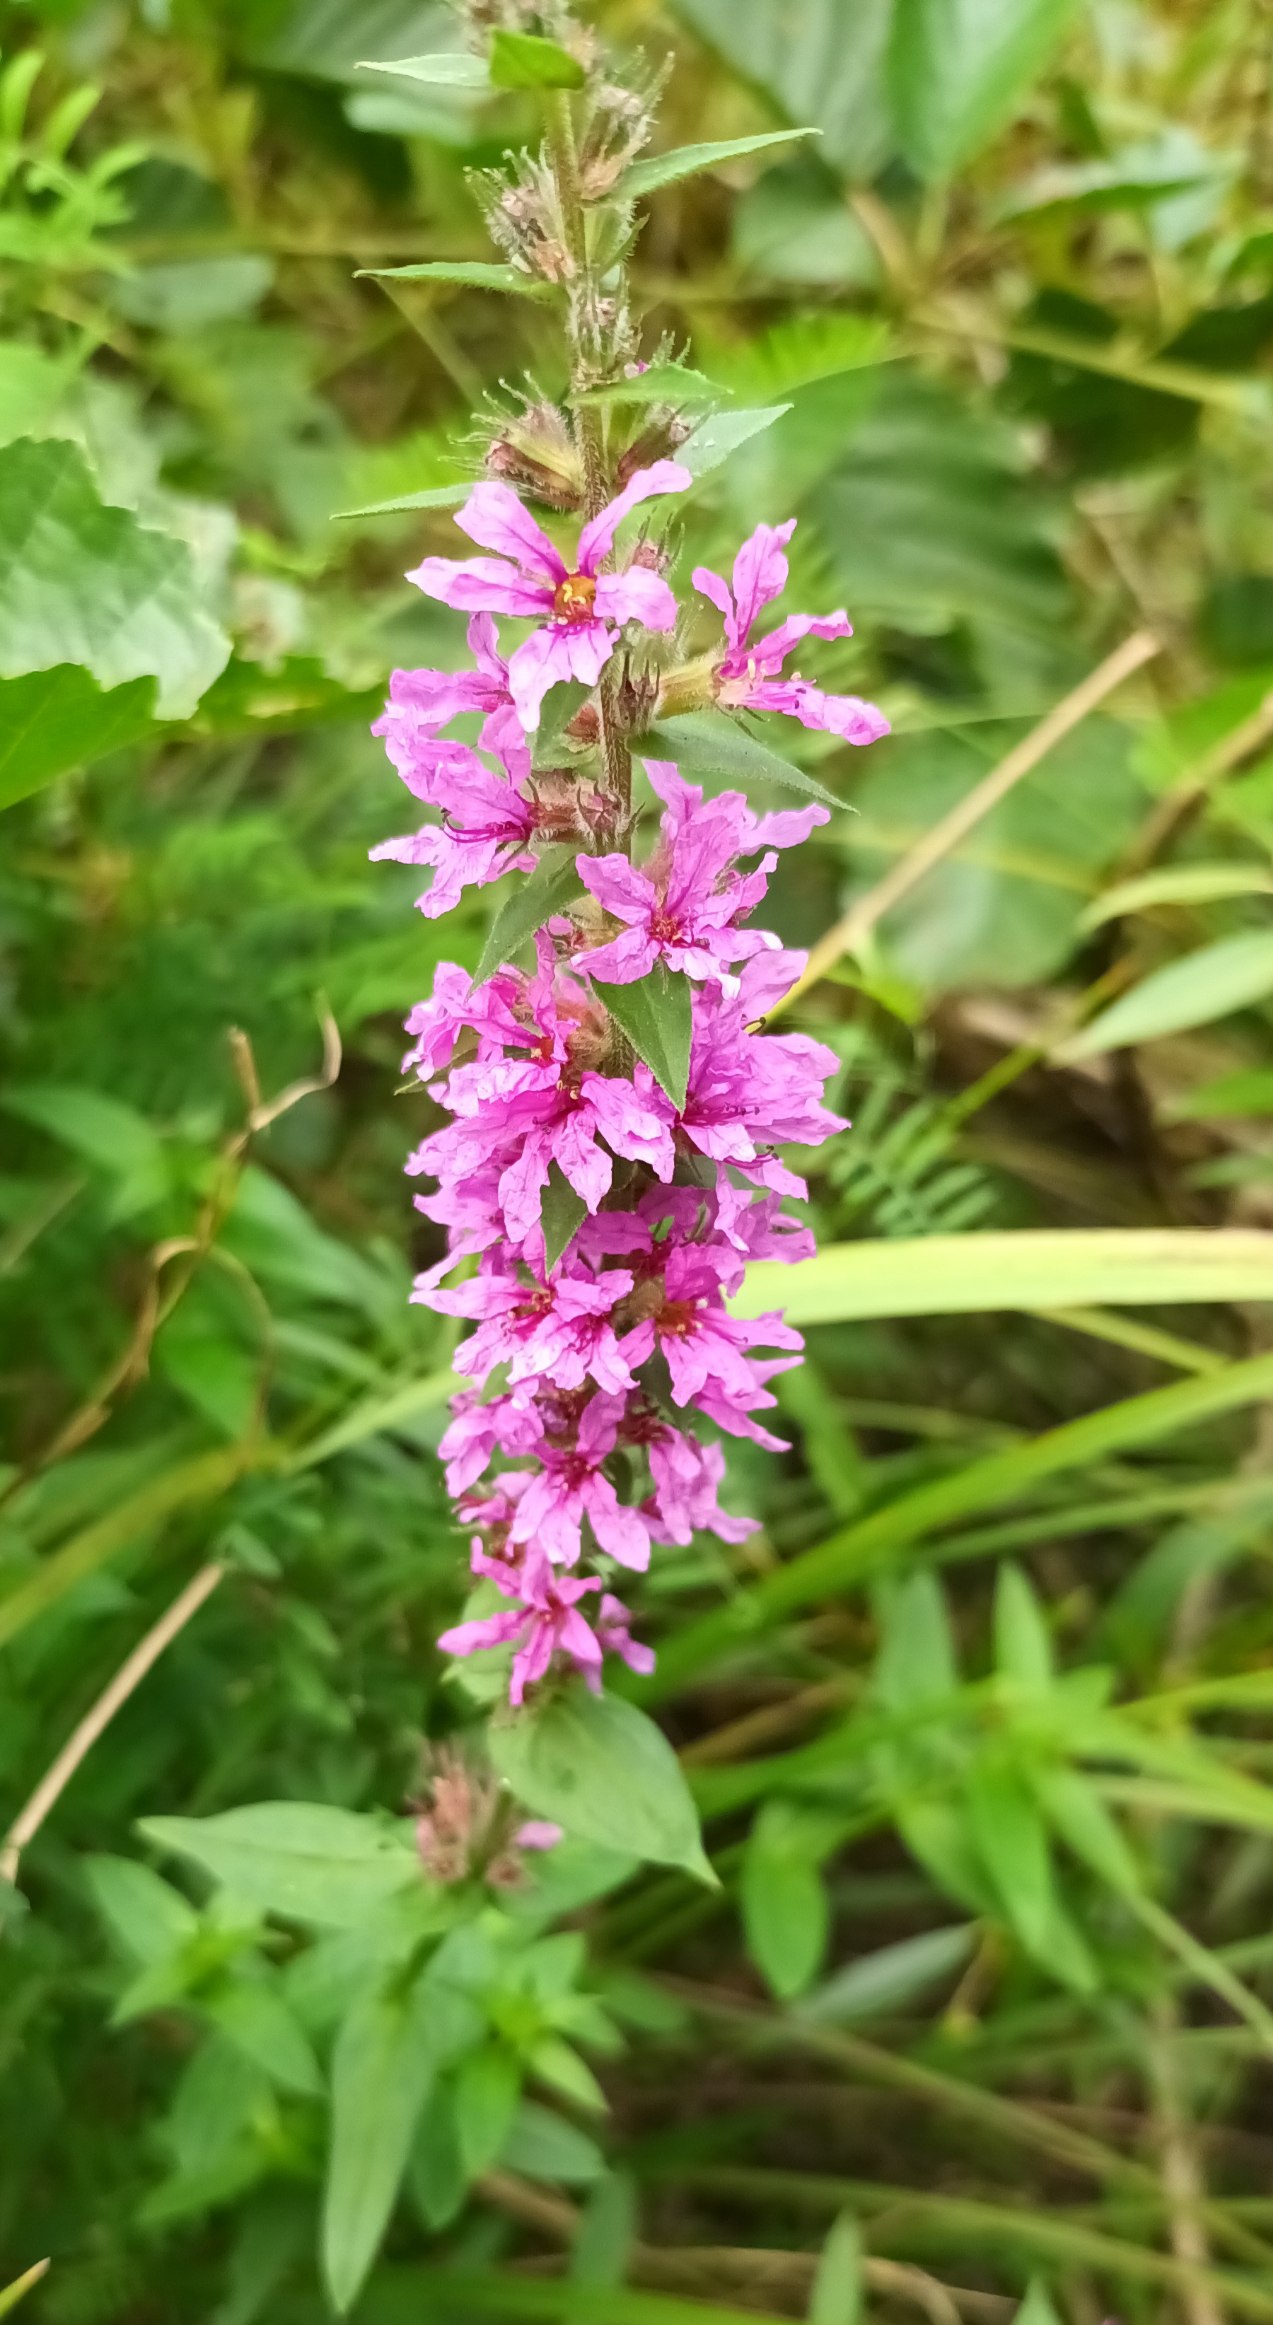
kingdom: Plantae
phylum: Tracheophyta
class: Magnoliopsida
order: Myrtales
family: Lythraceae
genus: Lythrum
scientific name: Lythrum salicaria
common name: Kattehale
